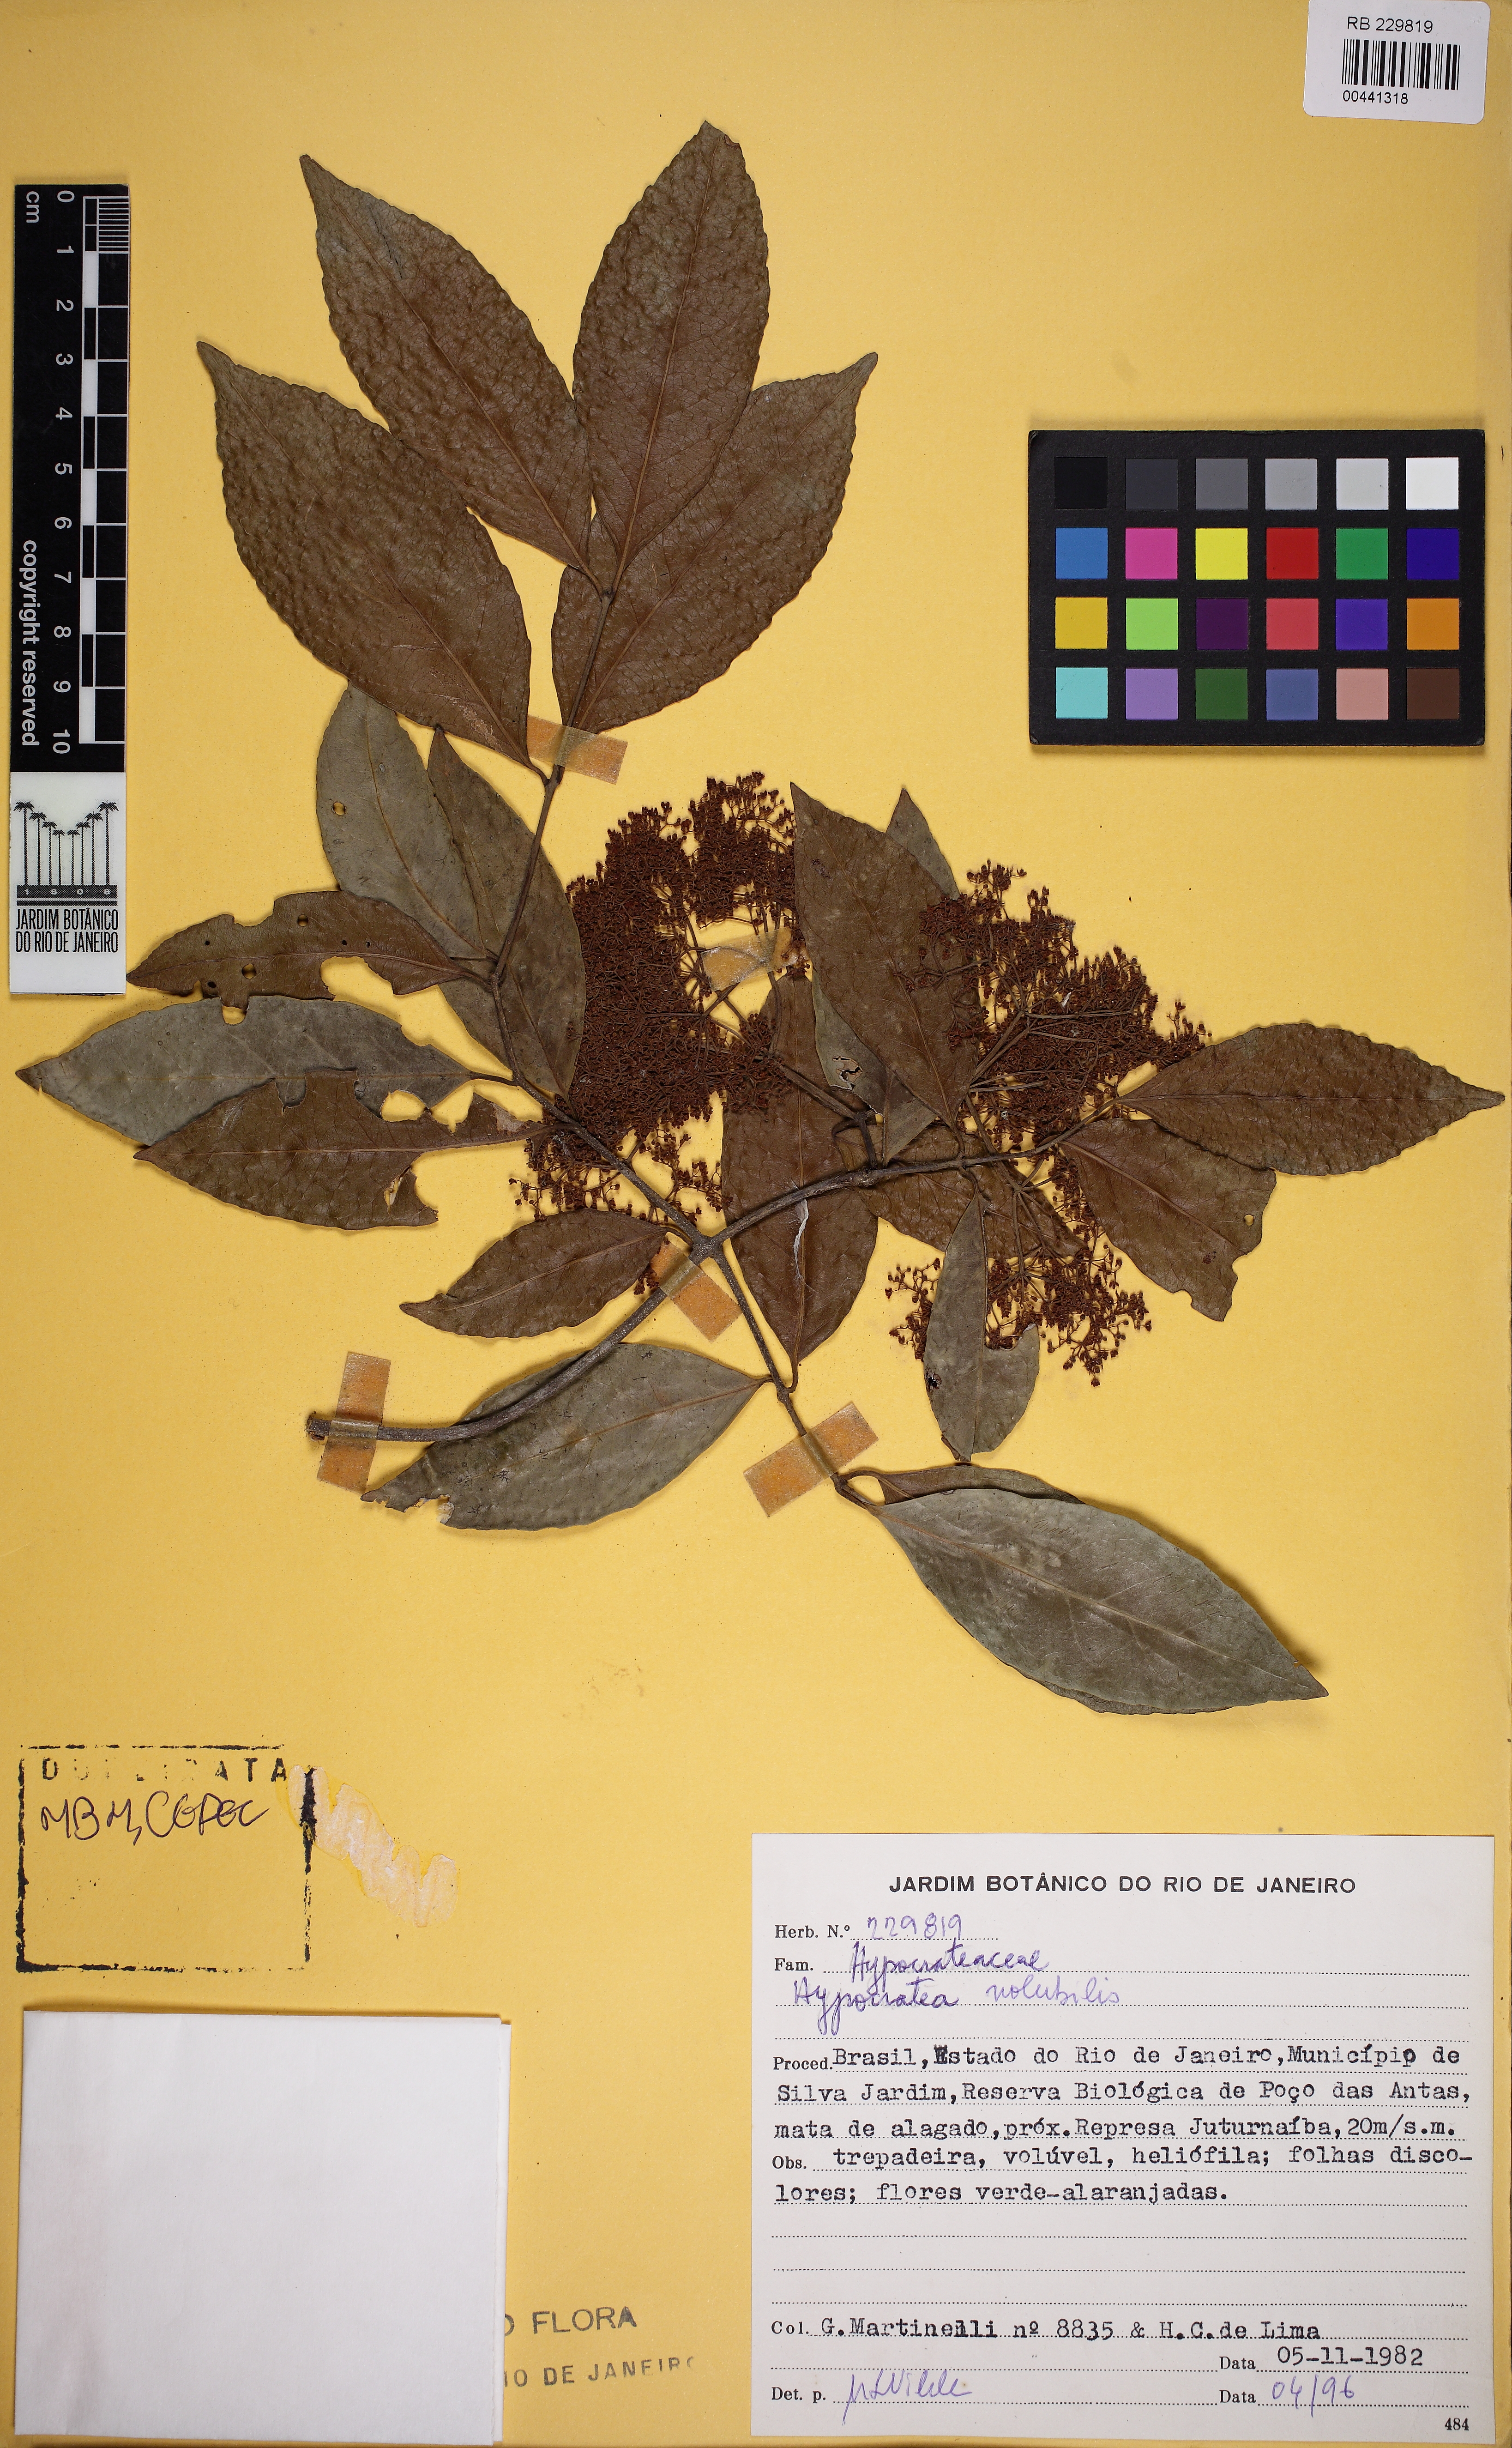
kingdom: Plantae
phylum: Tracheophyta
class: Magnoliopsida
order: Celastrales
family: Celastraceae
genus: Hippocratea
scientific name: Hippocratea volubilis
